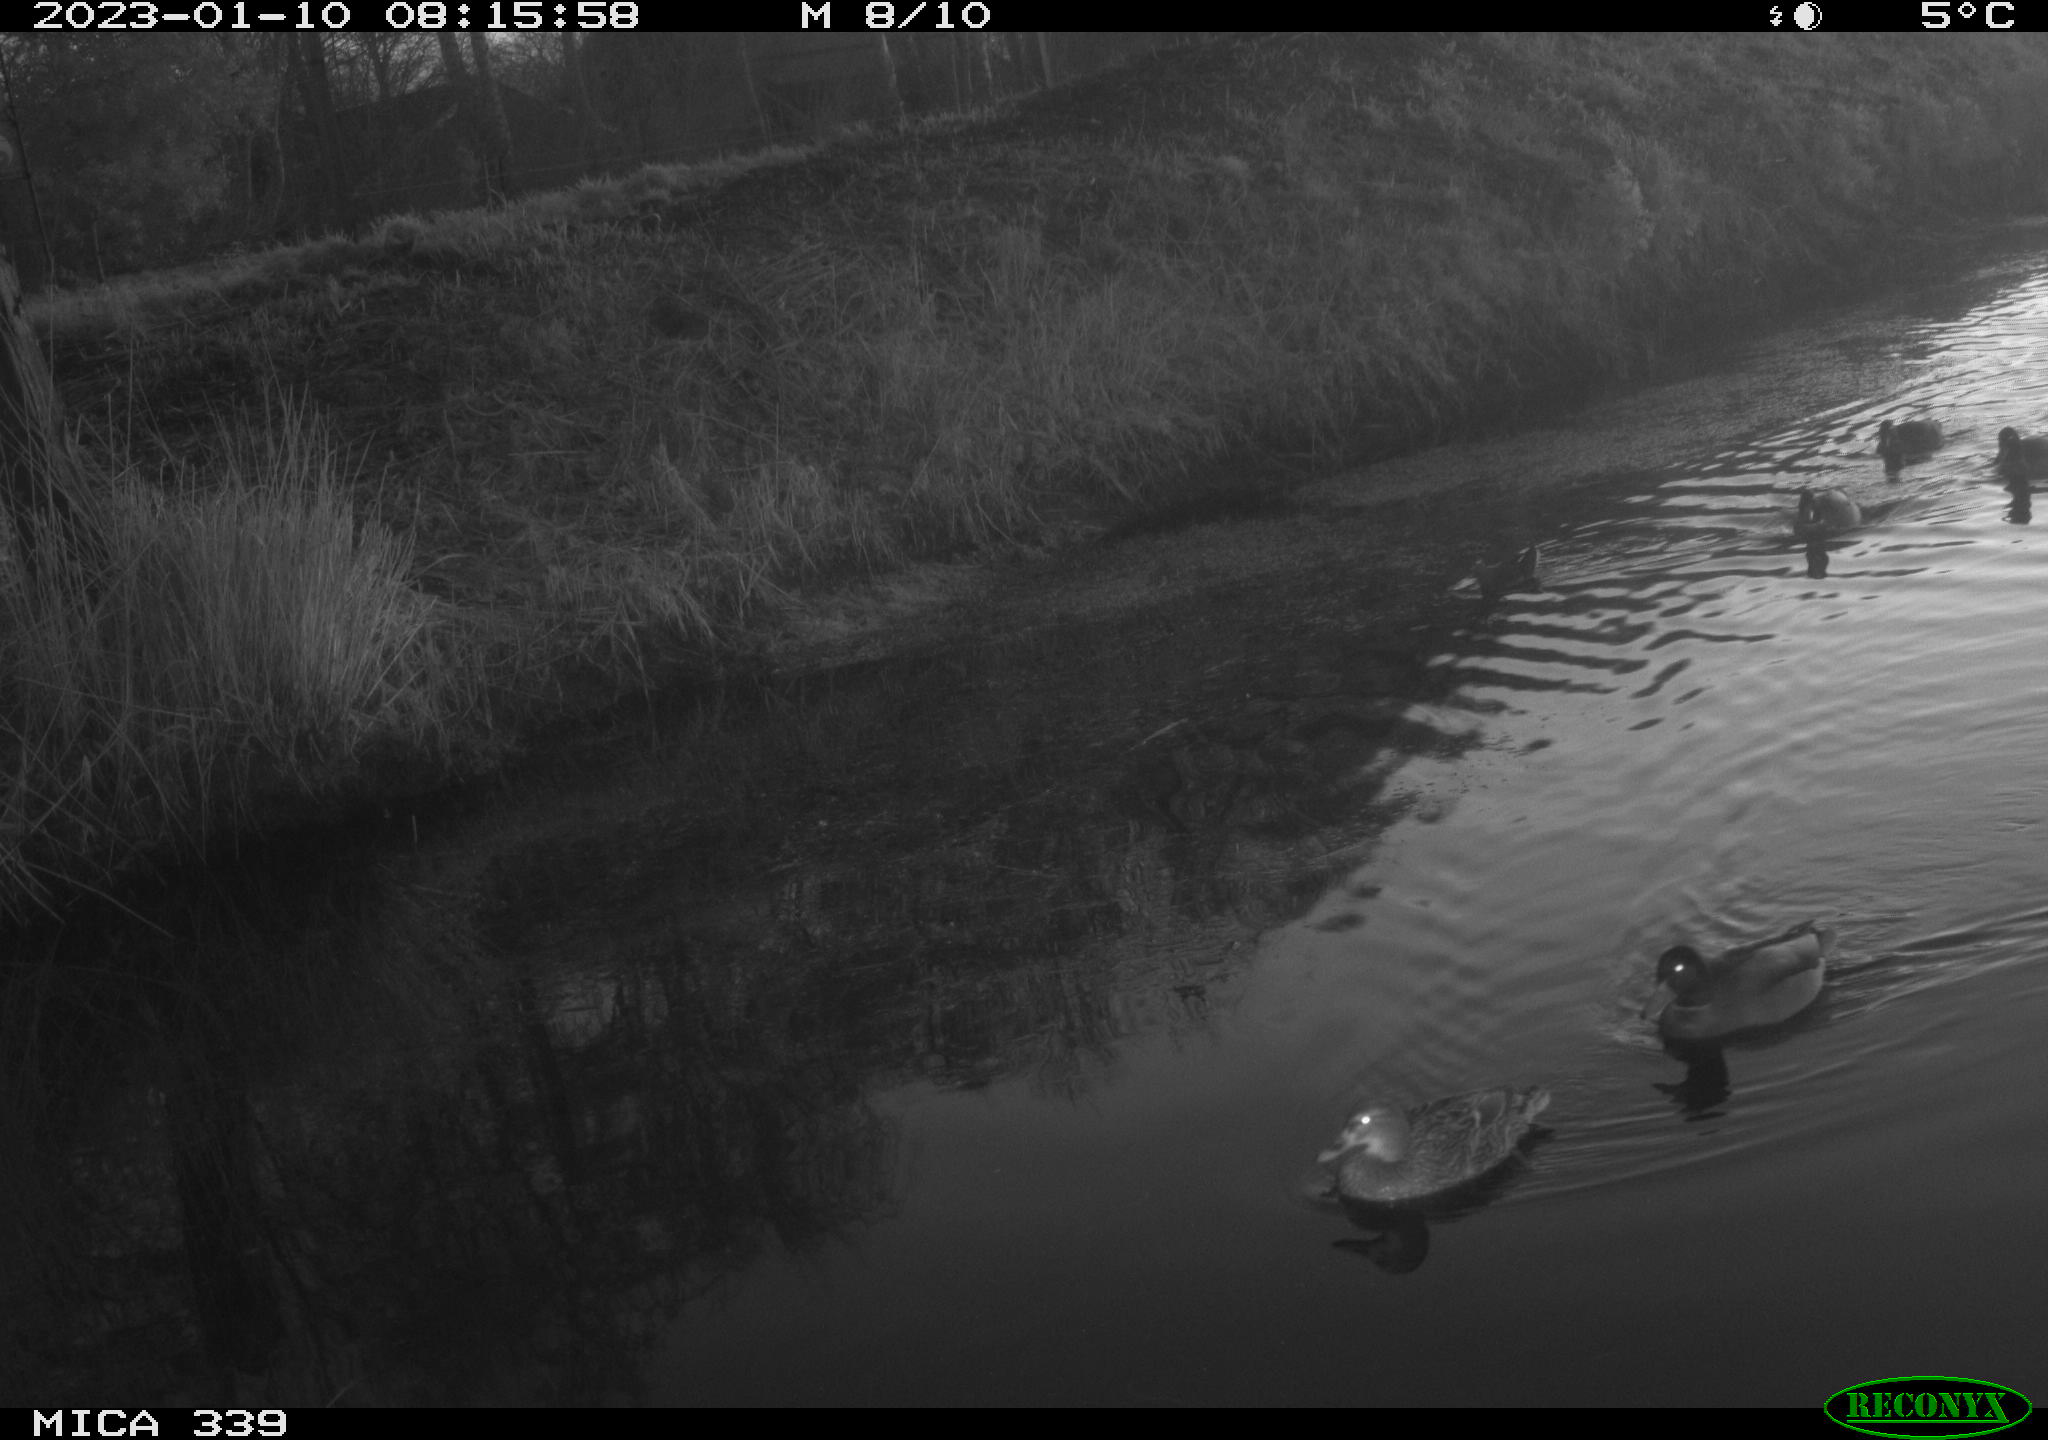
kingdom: Animalia
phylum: Chordata
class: Aves
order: Anseriformes
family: Anatidae
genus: Anas
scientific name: Anas
